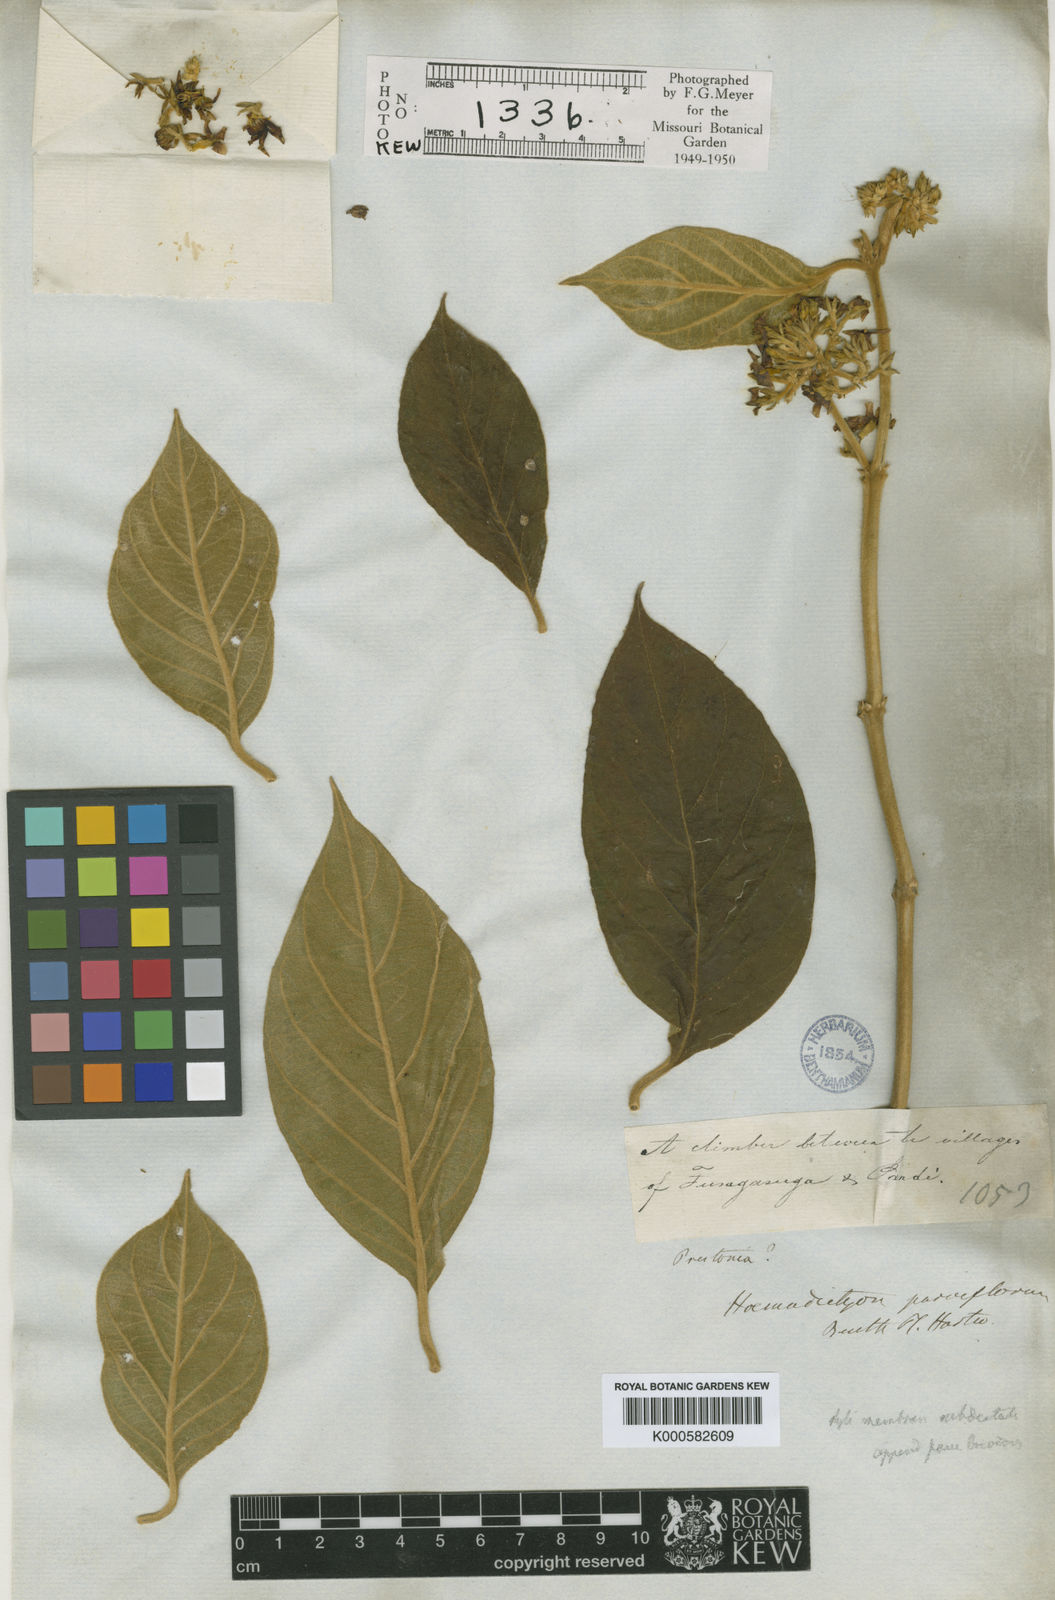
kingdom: Plantae
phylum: Tracheophyta
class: Magnoliopsida
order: Gentianales
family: Apocynaceae
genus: Prestonia
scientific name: Prestonia
